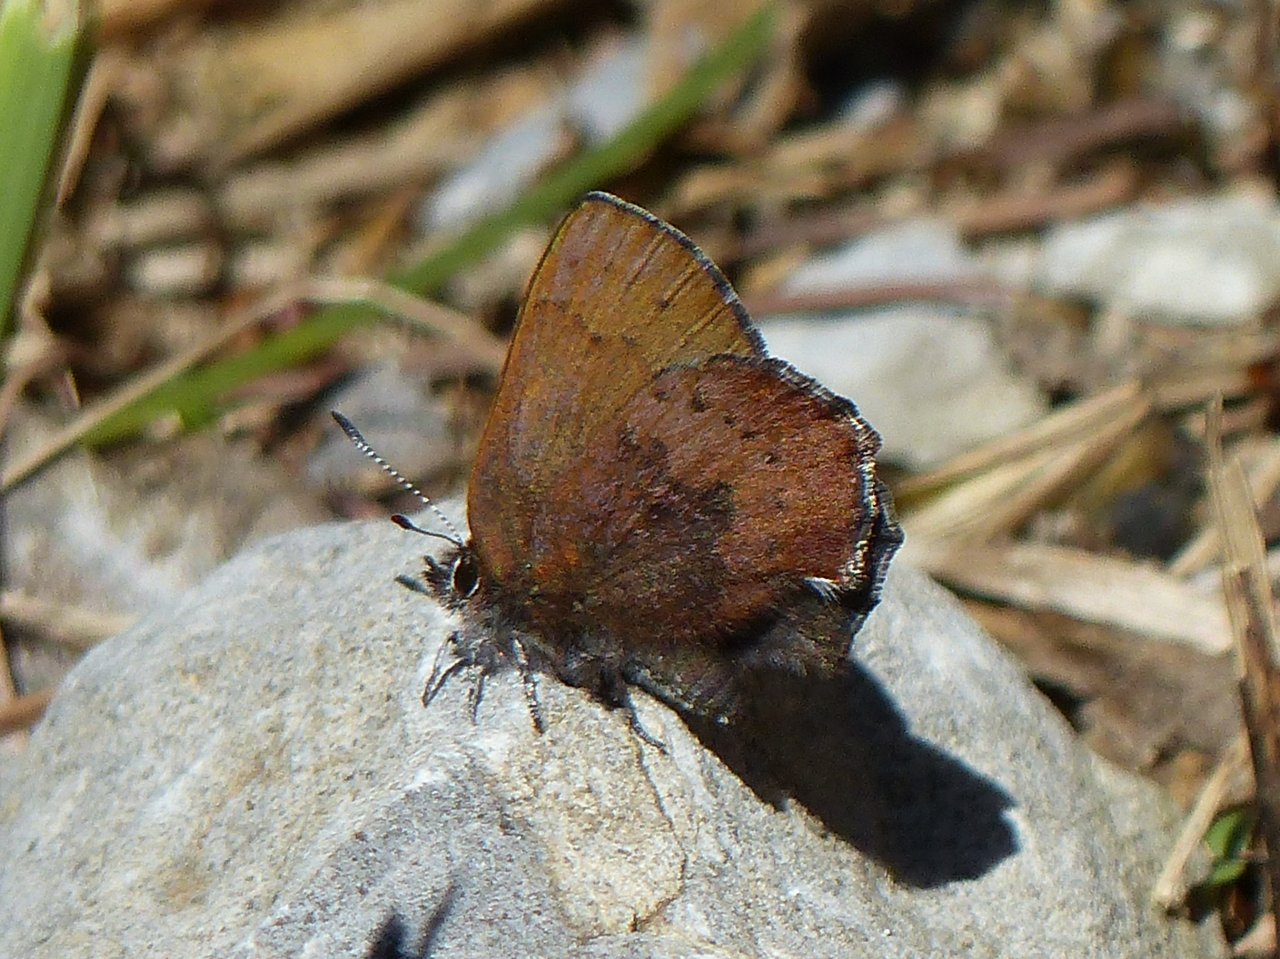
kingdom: Animalia
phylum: Arthropoda
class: Insecta
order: Lepidoptera
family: Lycaenidae
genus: Incisalia
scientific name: Incisalia irioides
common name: Brown Elfin
